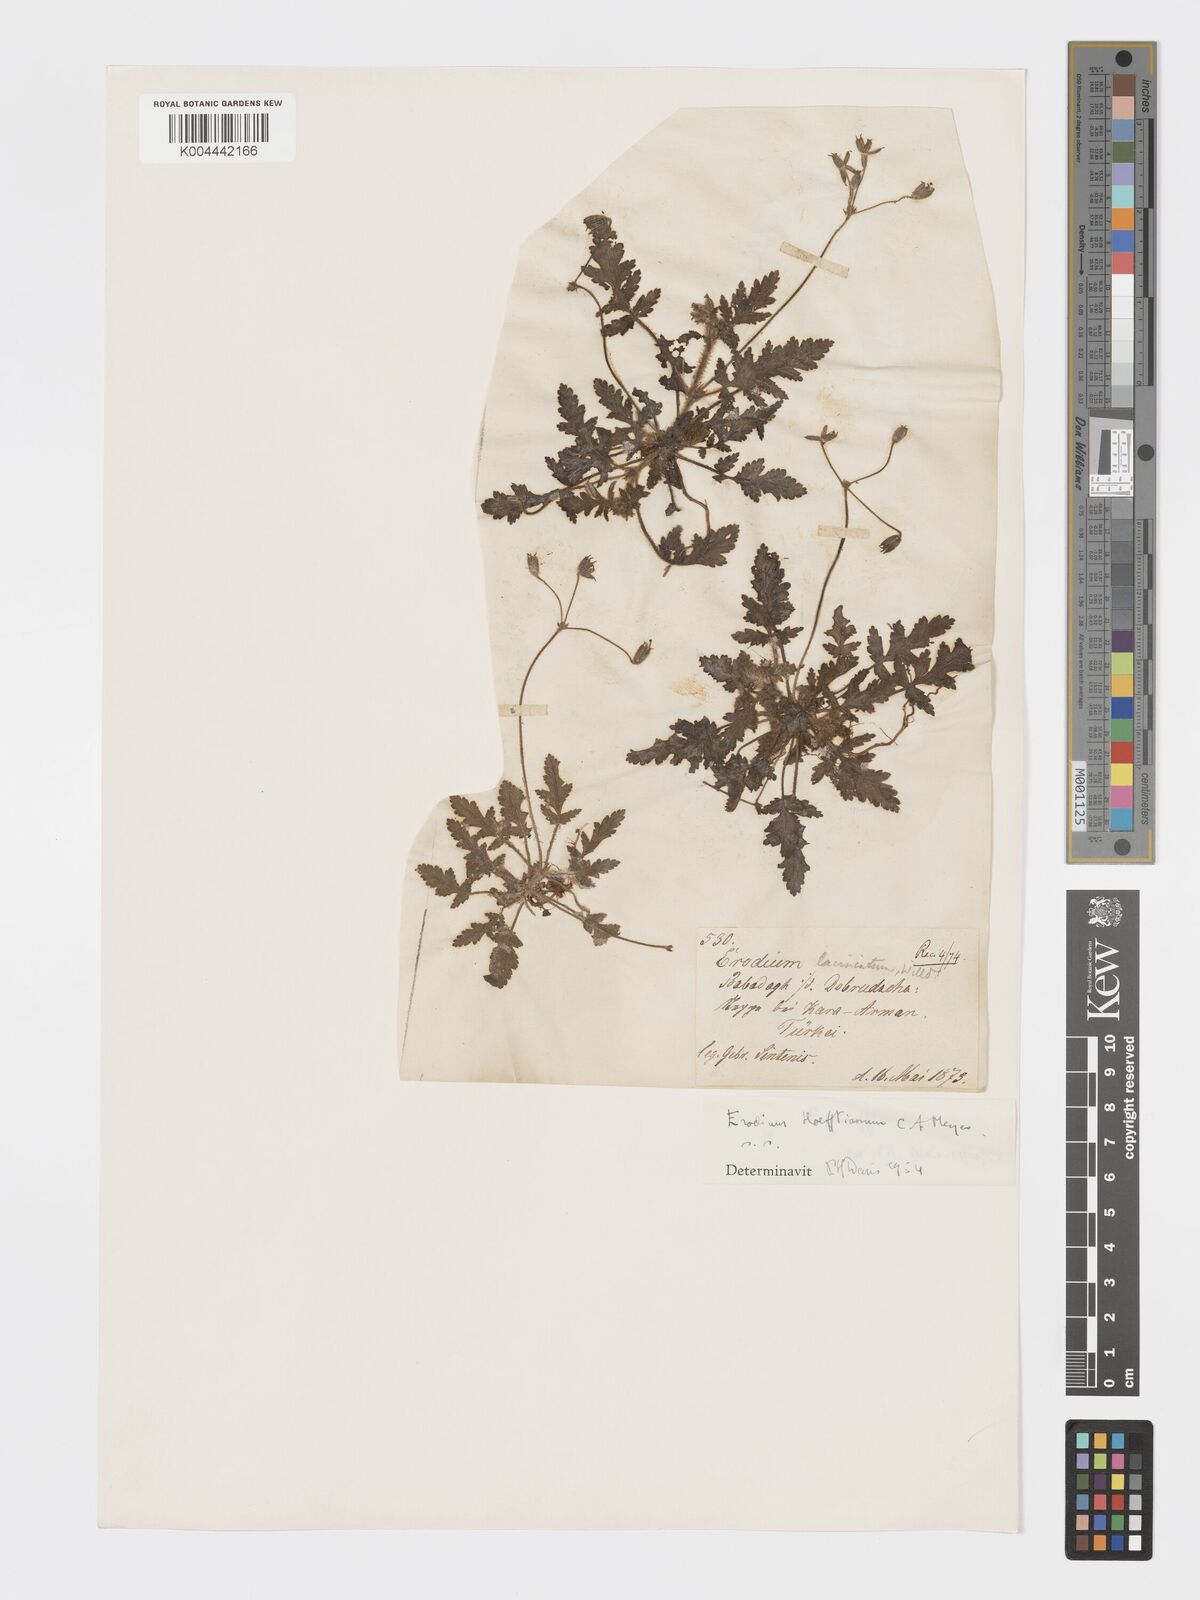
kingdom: Plantae
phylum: Tracheophyta
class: Magnoliopsida
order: Geraniales
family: Geraniaceae
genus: Erodium
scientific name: Erodium hoefftianum
